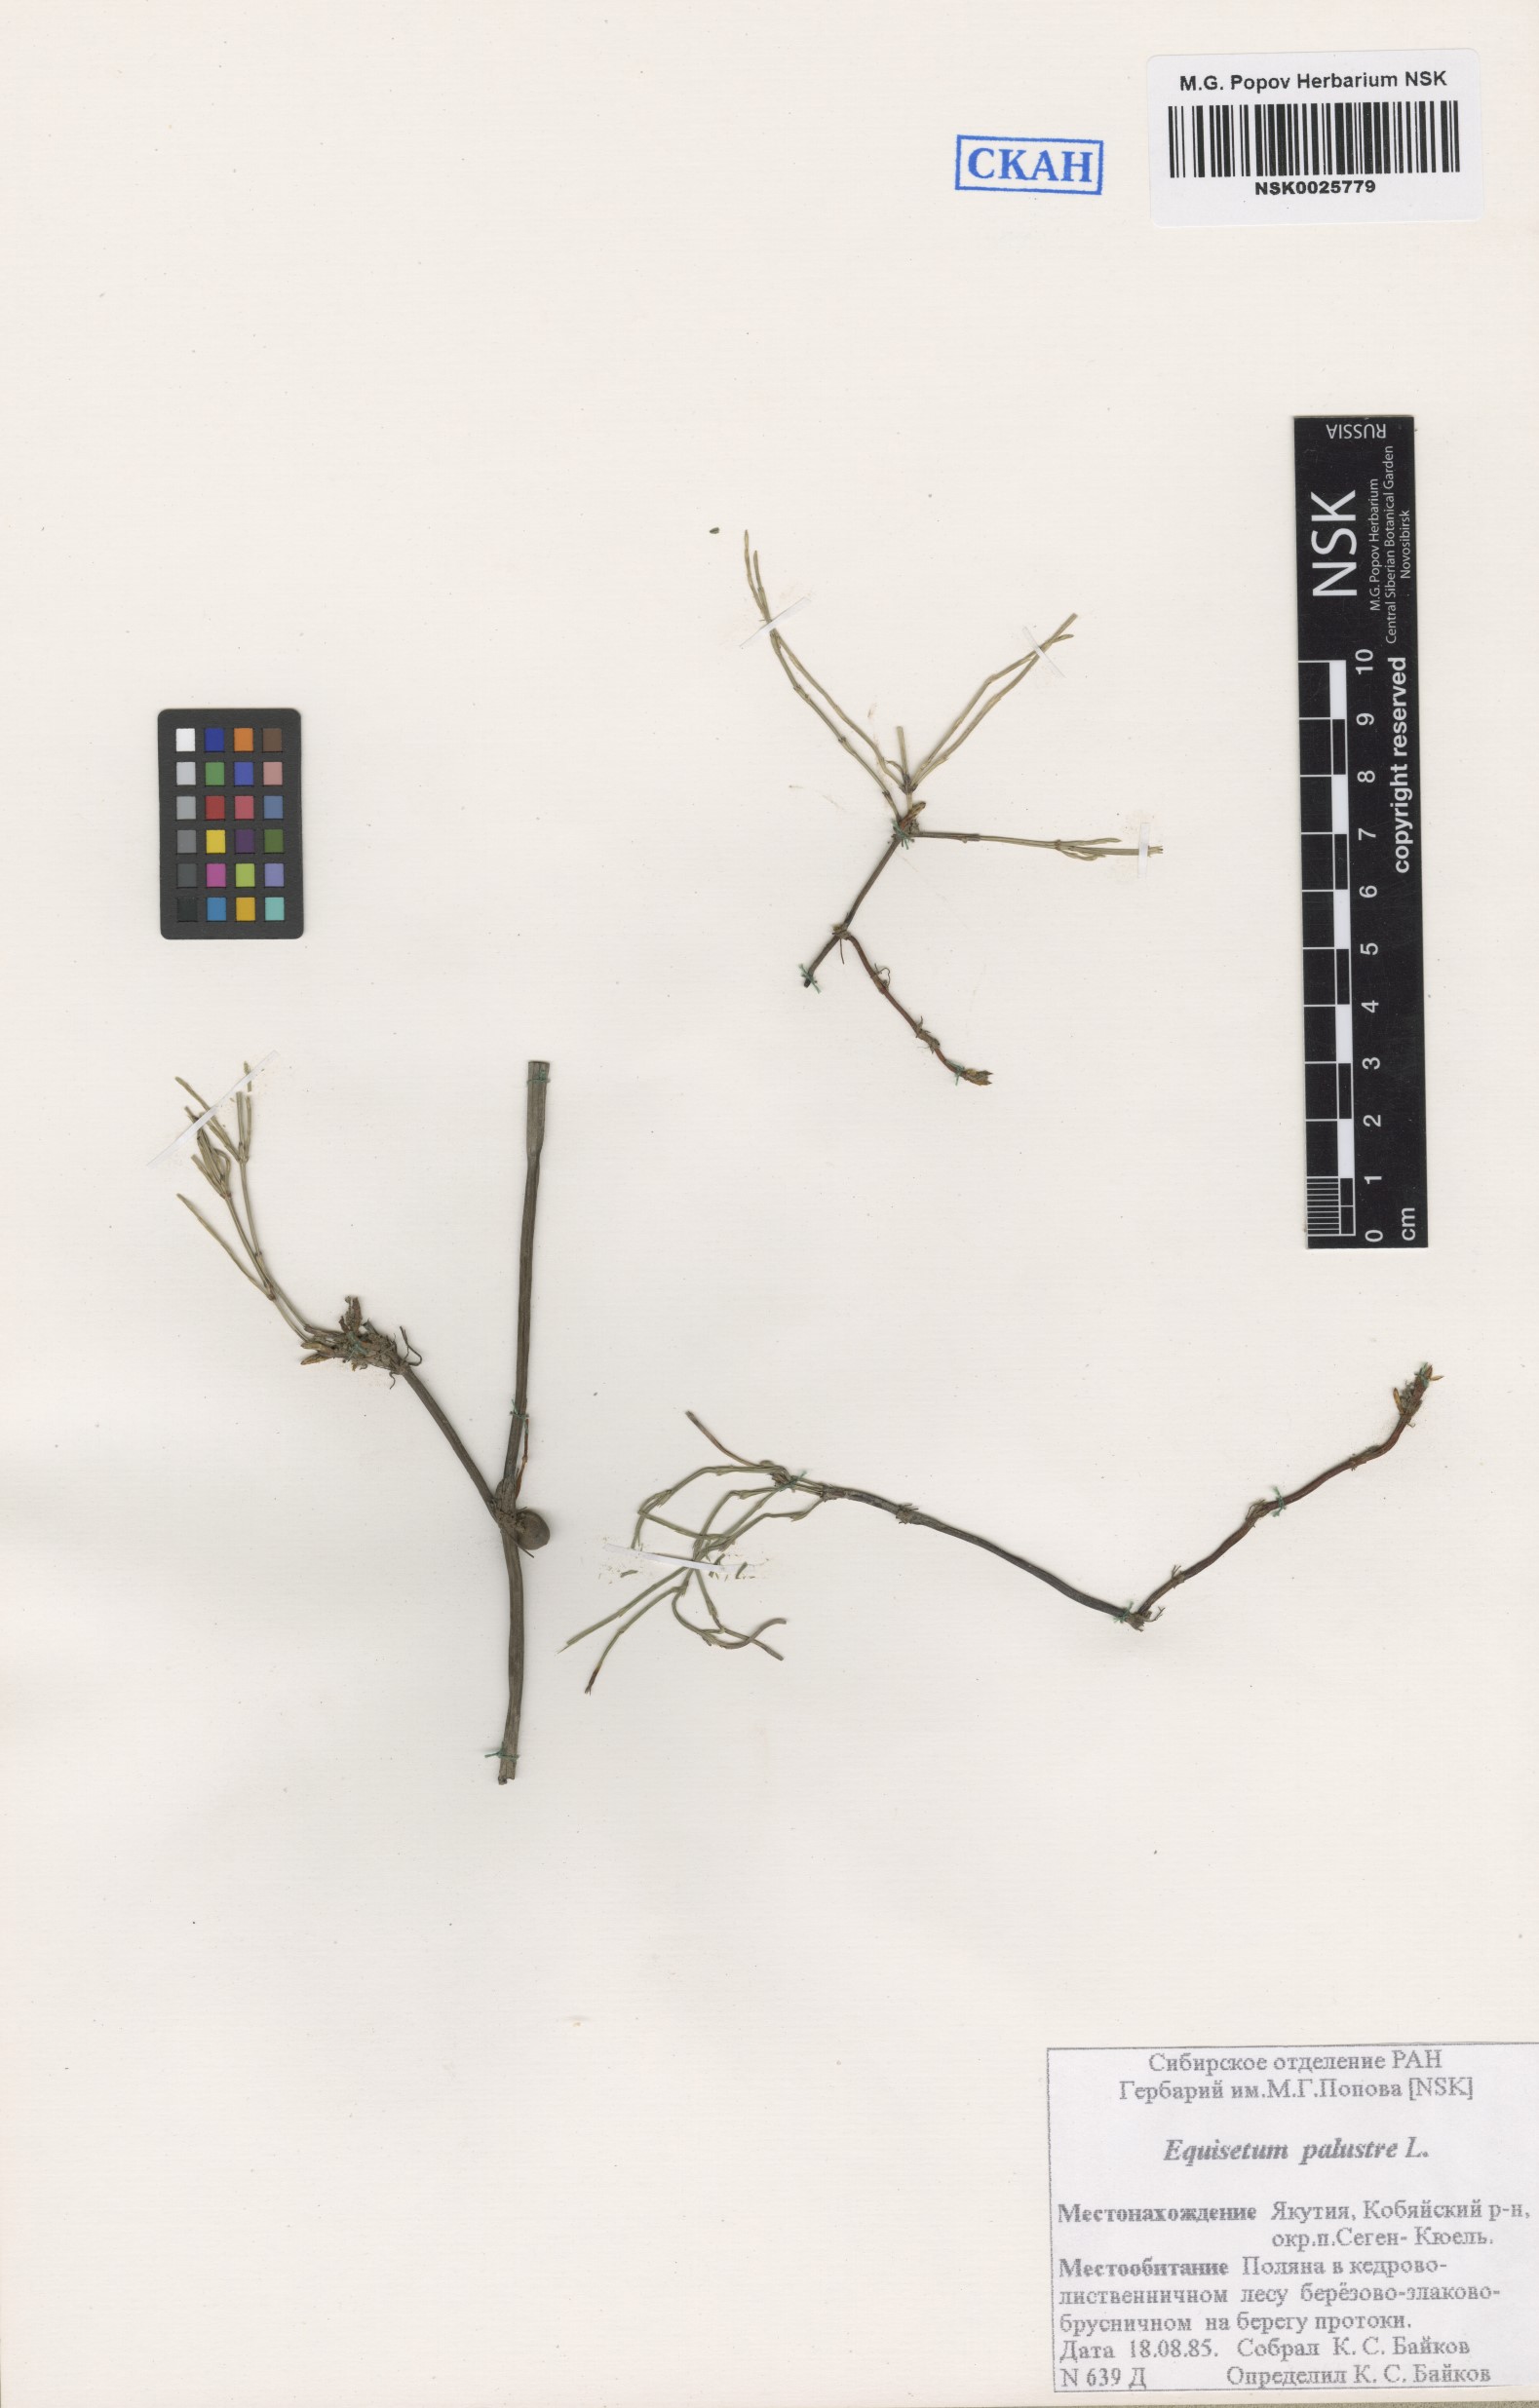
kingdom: Plantae
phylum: Tracheophyta
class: Polypodiopsida
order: Equisetales
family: Equisetaceae
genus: Equisetum
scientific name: Equisetum palustre
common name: Marsh horsetail
